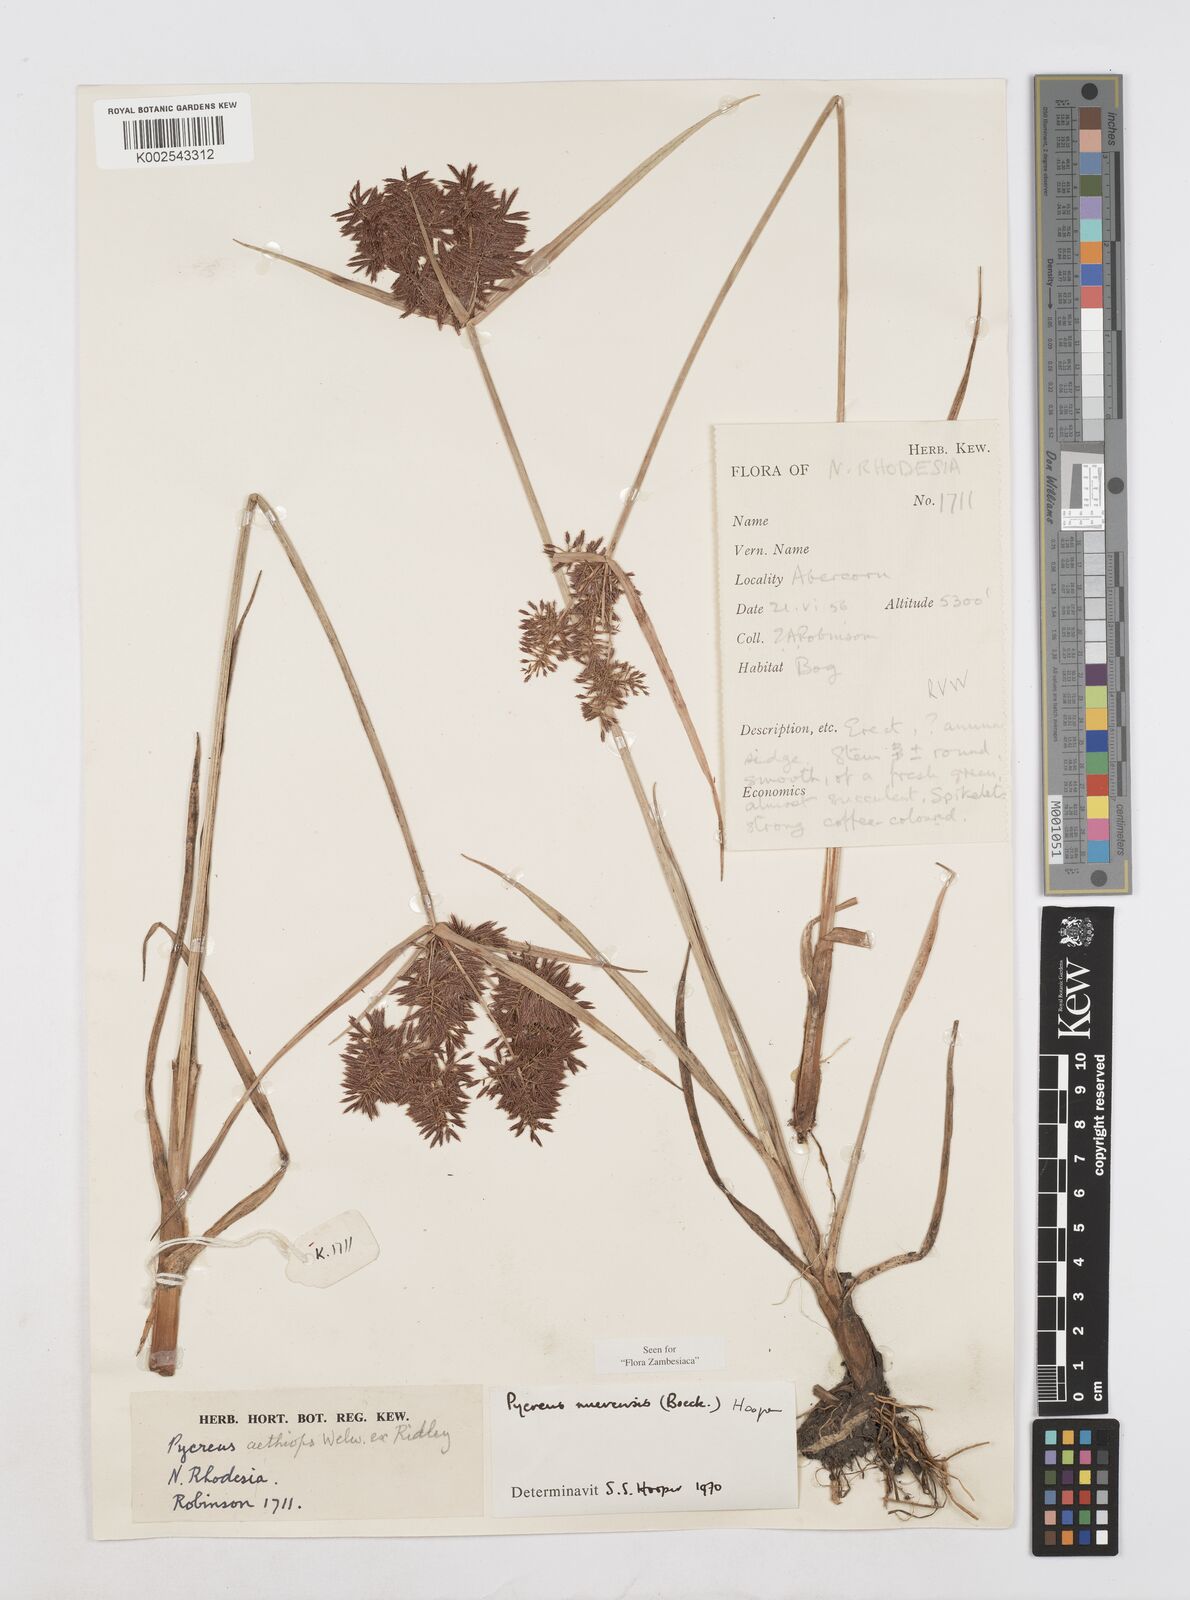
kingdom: Plantae
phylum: Tracheophyta
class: Liliopsida
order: Poales
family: Cyperaceae
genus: Cyperus
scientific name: Cyperus nuerensis
